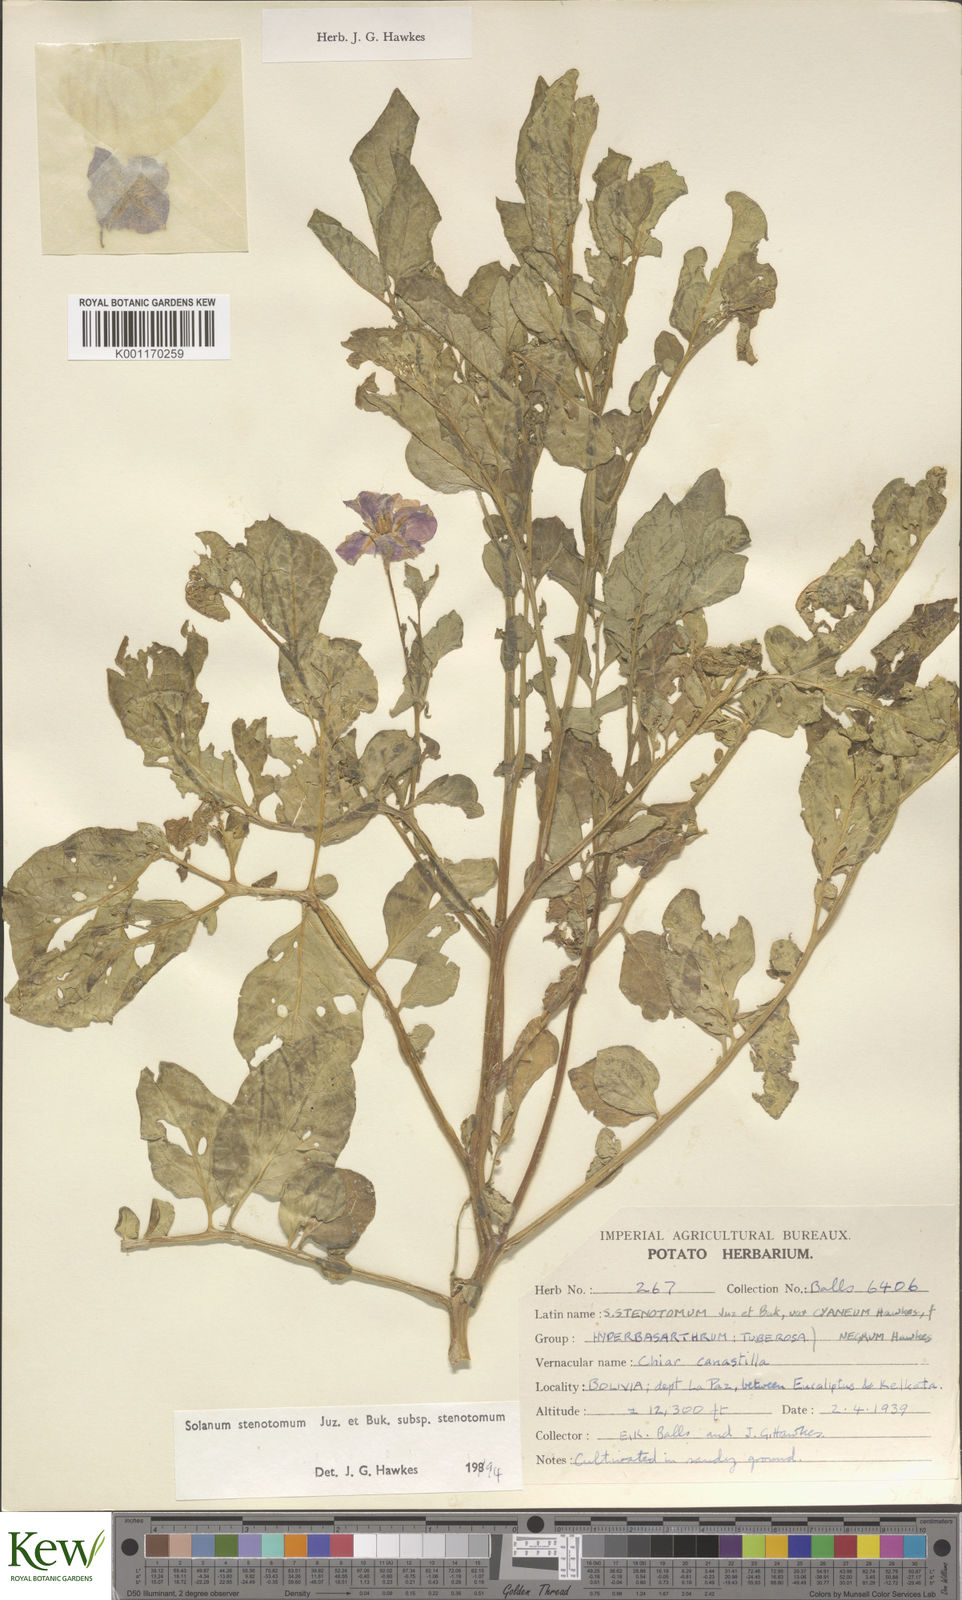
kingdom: Plantae
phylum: Tracheophyta
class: Magnoliopsida
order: Solanales
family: Solanaceae
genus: Solanum
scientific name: Solanum tuberosum
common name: Potato
